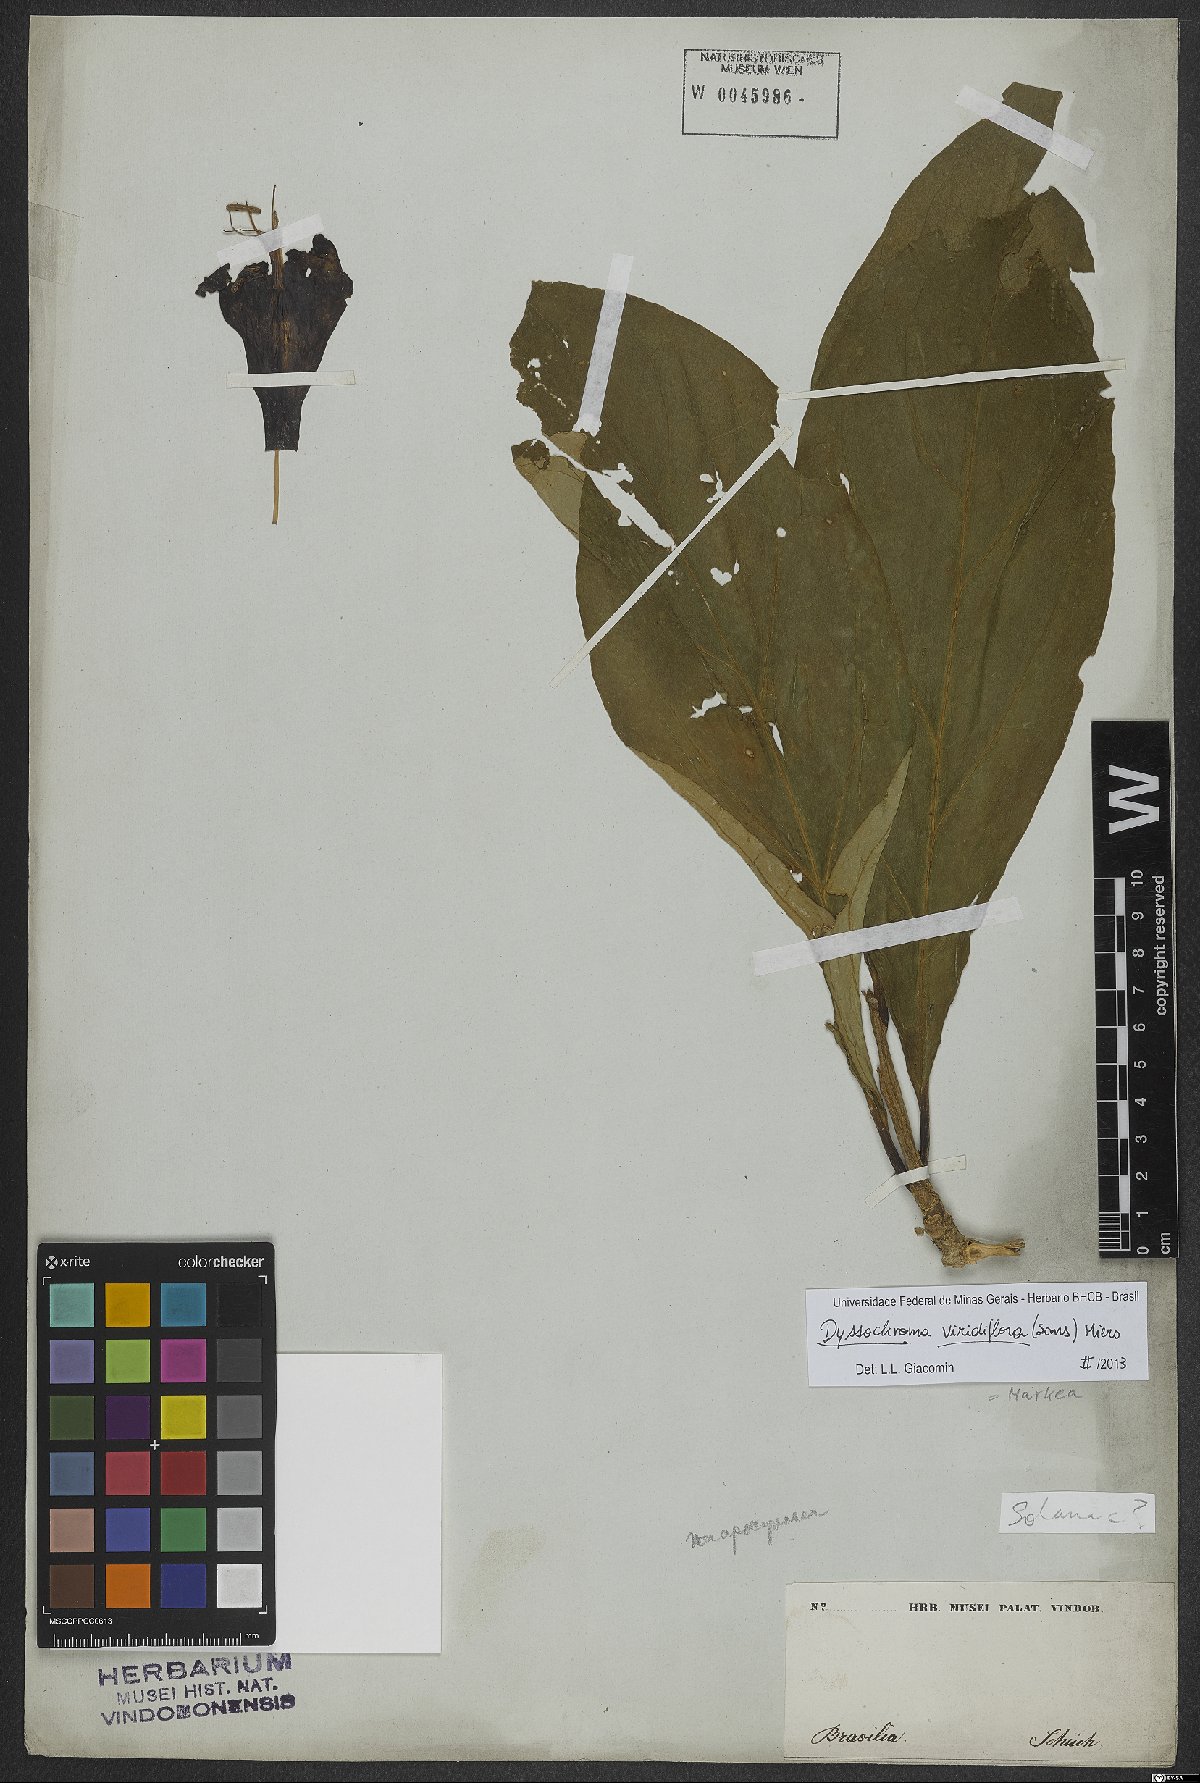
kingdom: Plantae
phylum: Tracheophyta
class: Magnoliopsida
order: Solanales
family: Solanaceae
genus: Dyssochroma
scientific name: Dyssochroma viridiflorum
